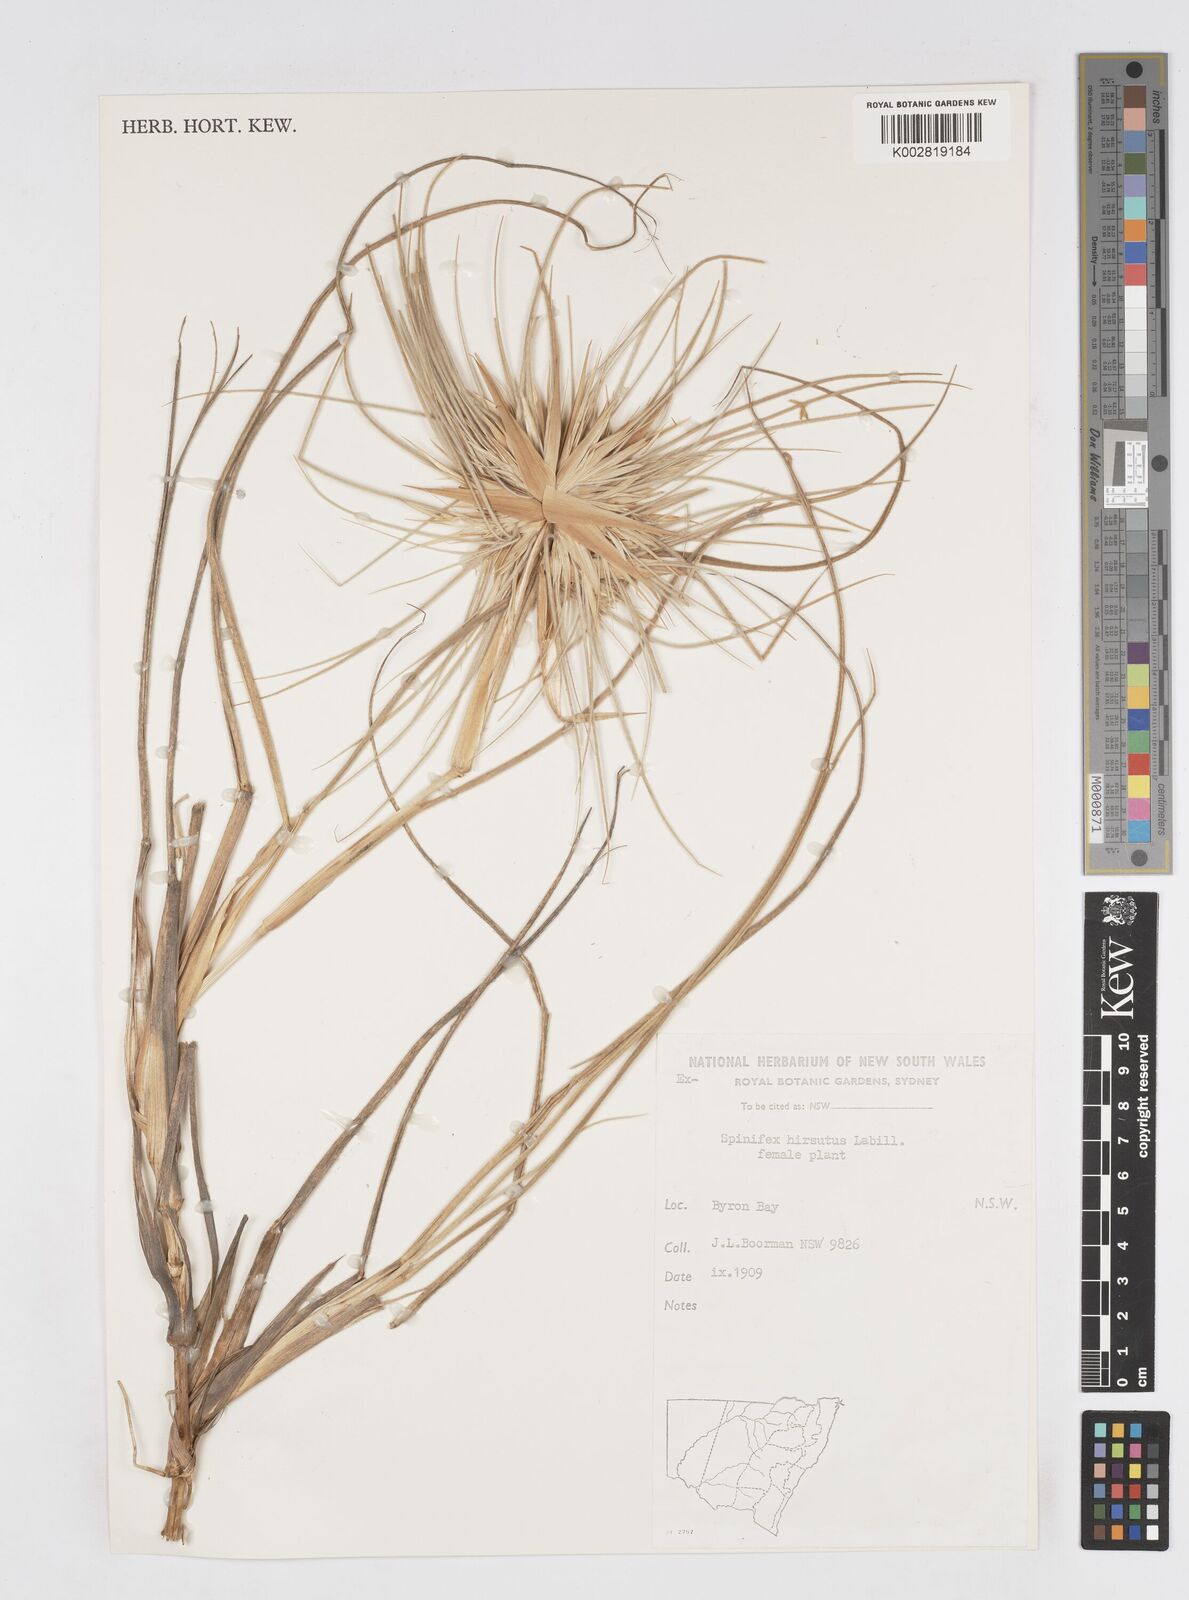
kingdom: Plantae
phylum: Tracheophyta
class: Liliopsida
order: Poales
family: Poaceae
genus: Spinifex
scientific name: Spinifex sericeus
